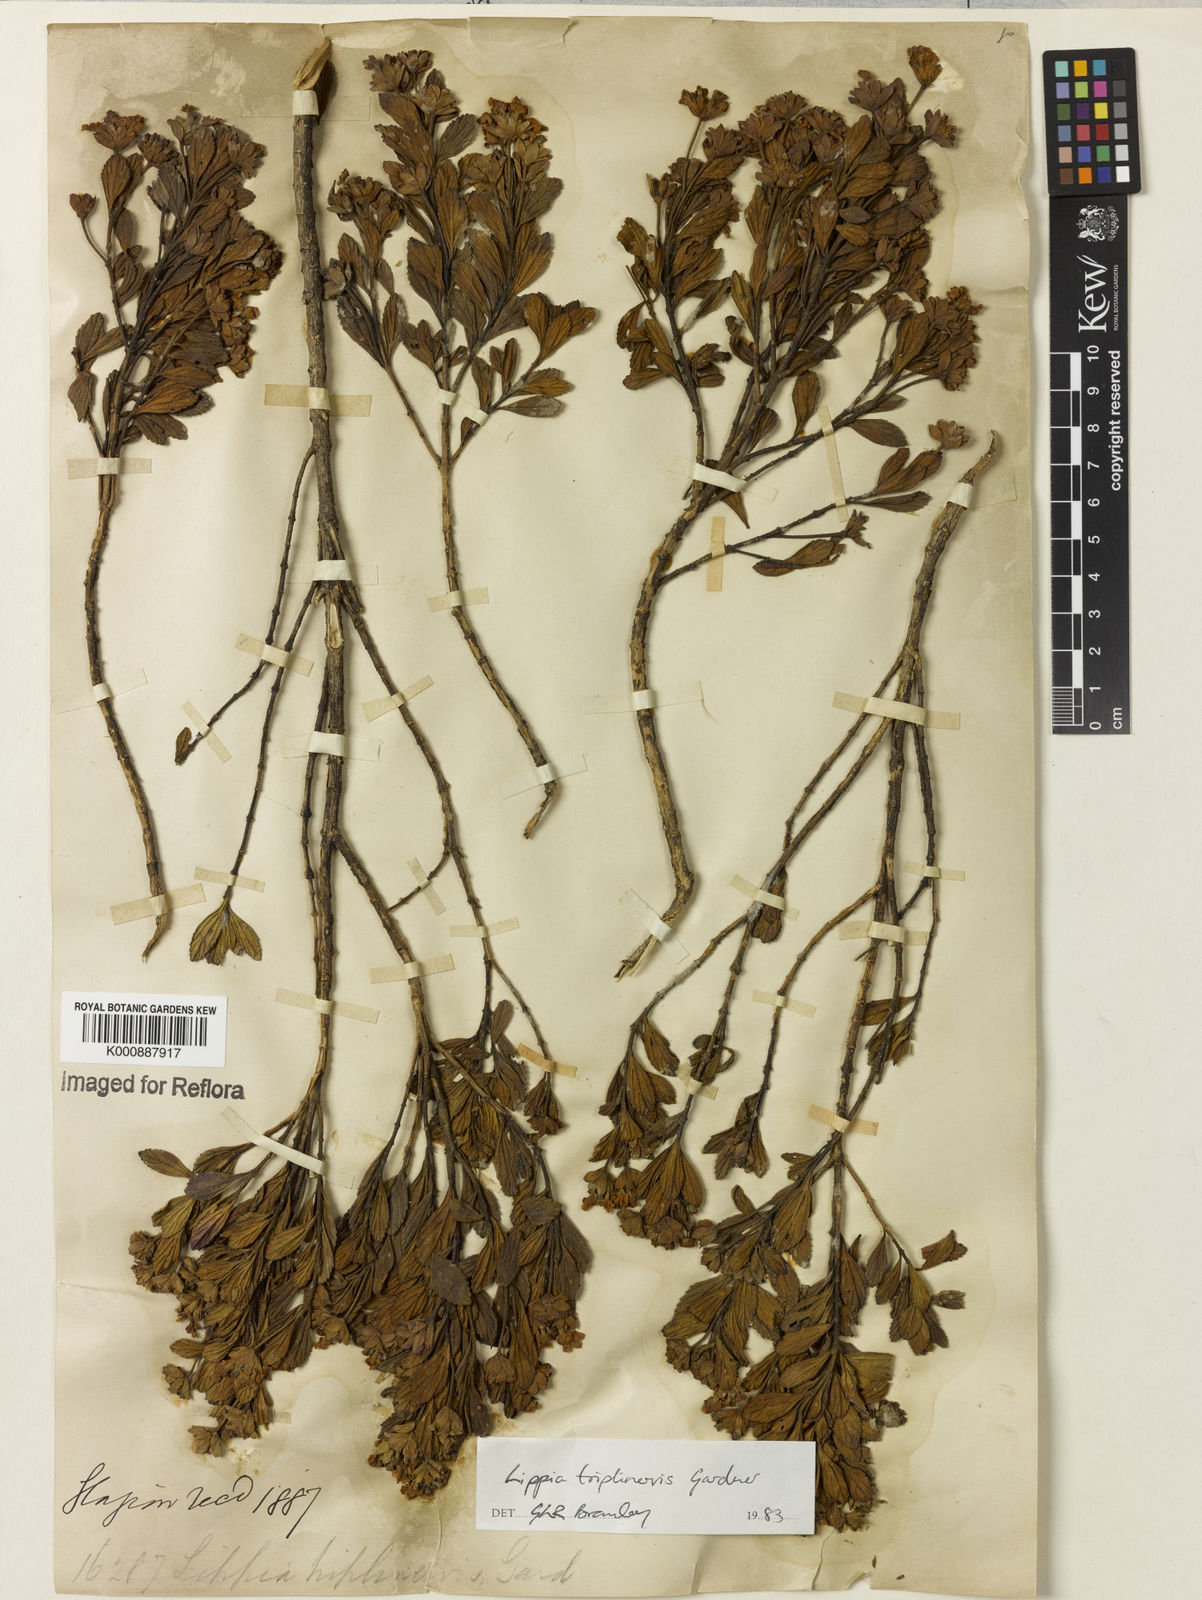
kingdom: Plantae
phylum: Tracheophyta
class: Magnoliopsida
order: Lamiales
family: Verbenaceae
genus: Lippia
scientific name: Lippia triplinervis
